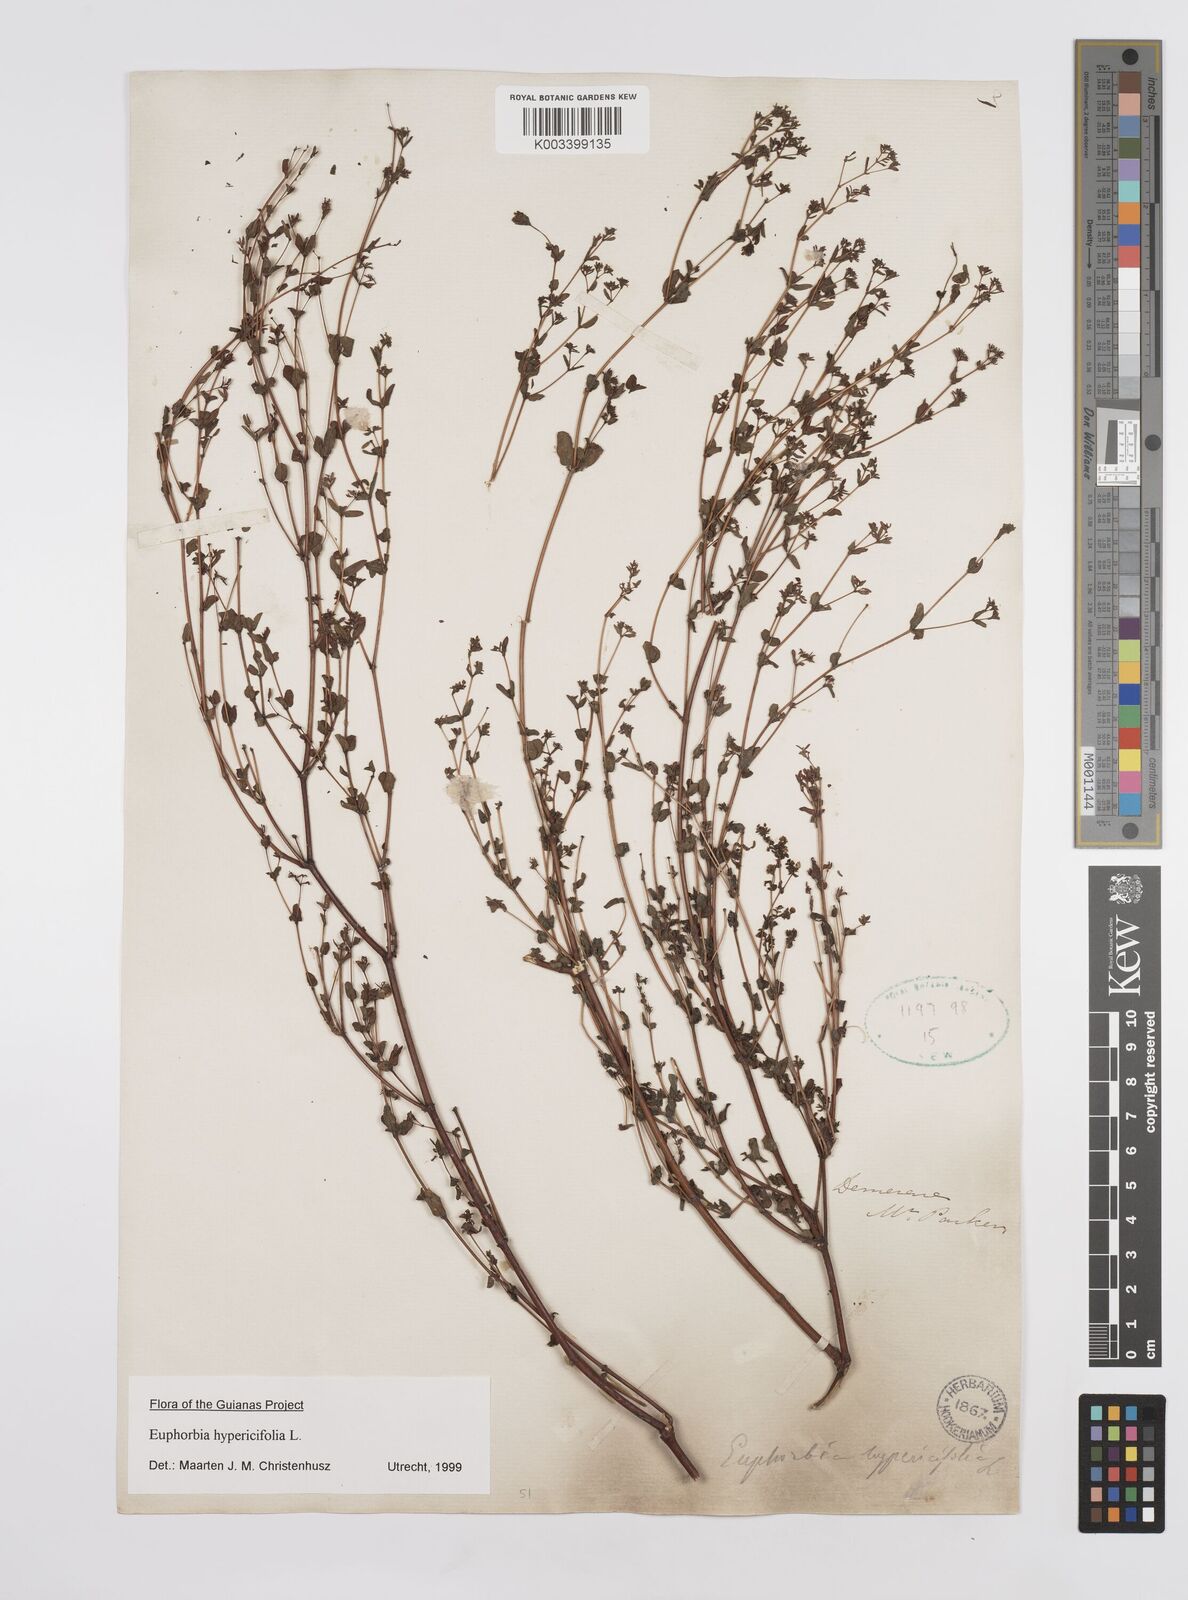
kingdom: Plantae
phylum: Tracheophyta
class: Magnoliopsida
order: Malpighiales
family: Euphorbiaceae
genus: Euphorbia
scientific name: Euphorbia hypericifolia
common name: Graceful sandmat
